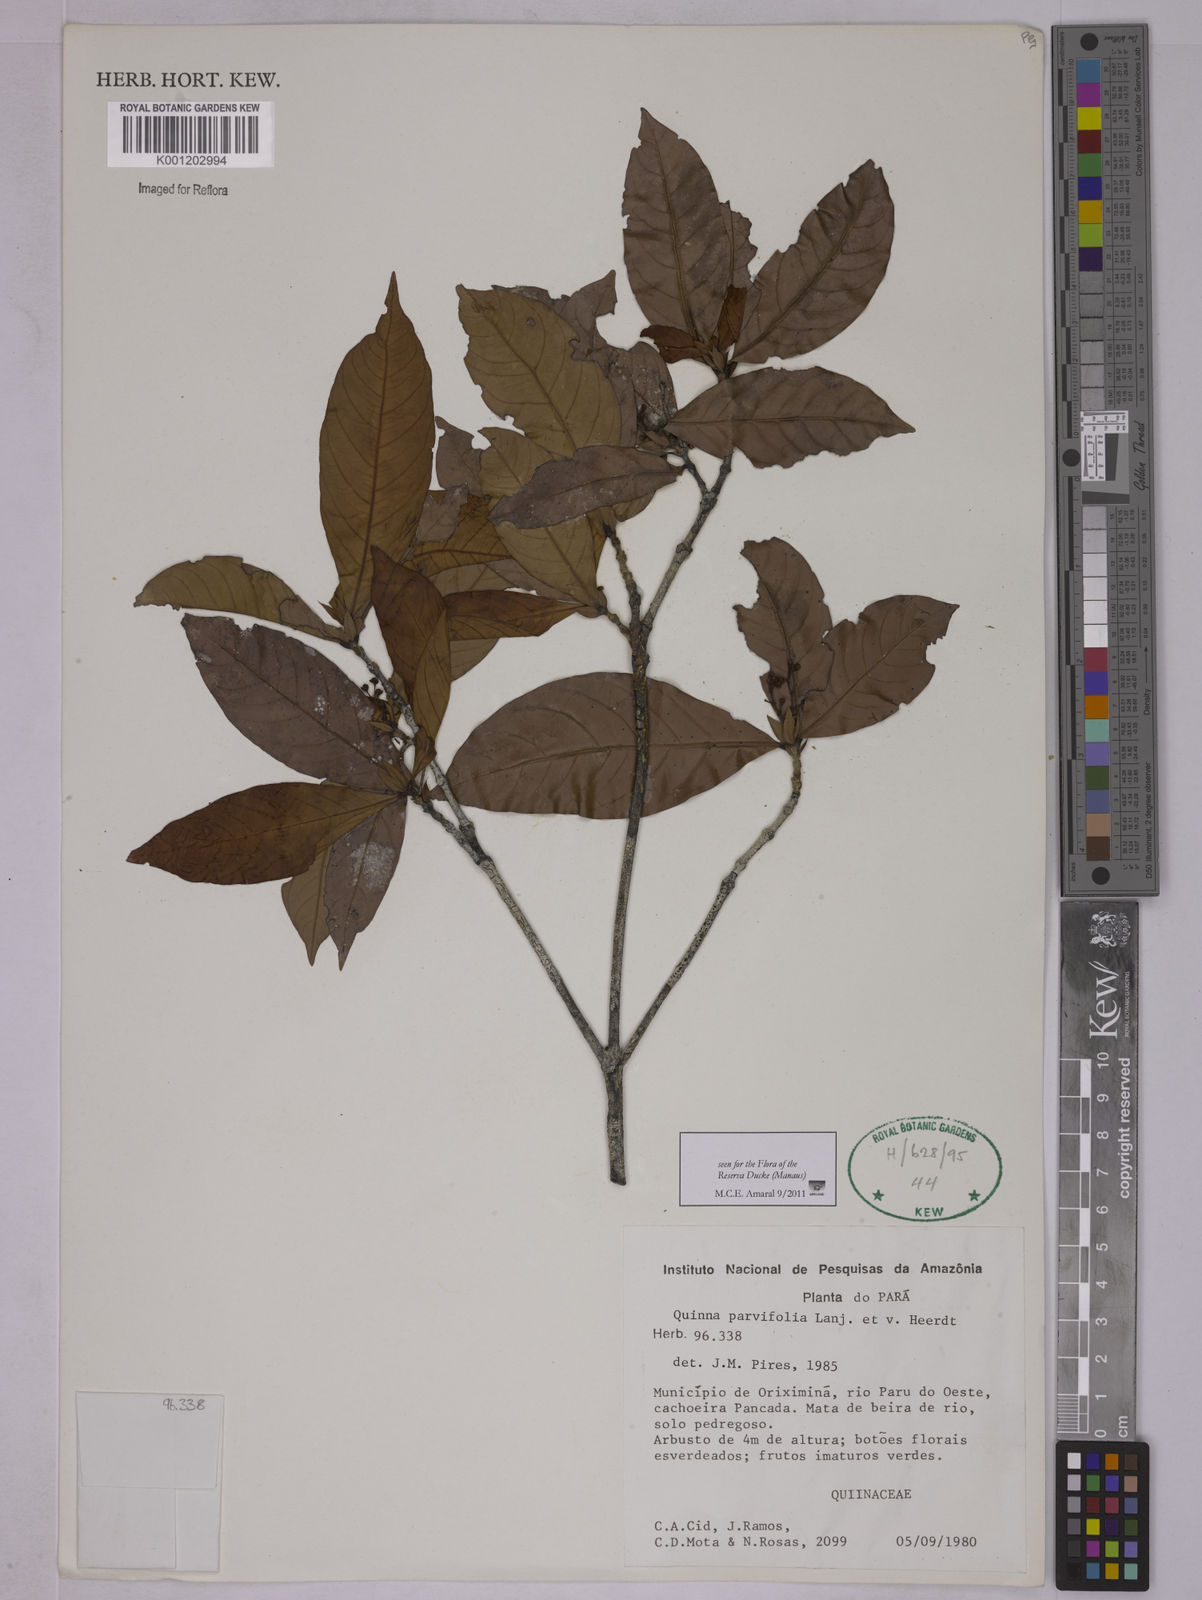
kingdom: Plantae
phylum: Tracheophyta
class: Magnoliopsida
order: Malpighiales
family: Quiinaceae
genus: Quiina
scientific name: Quiina parvifolia
